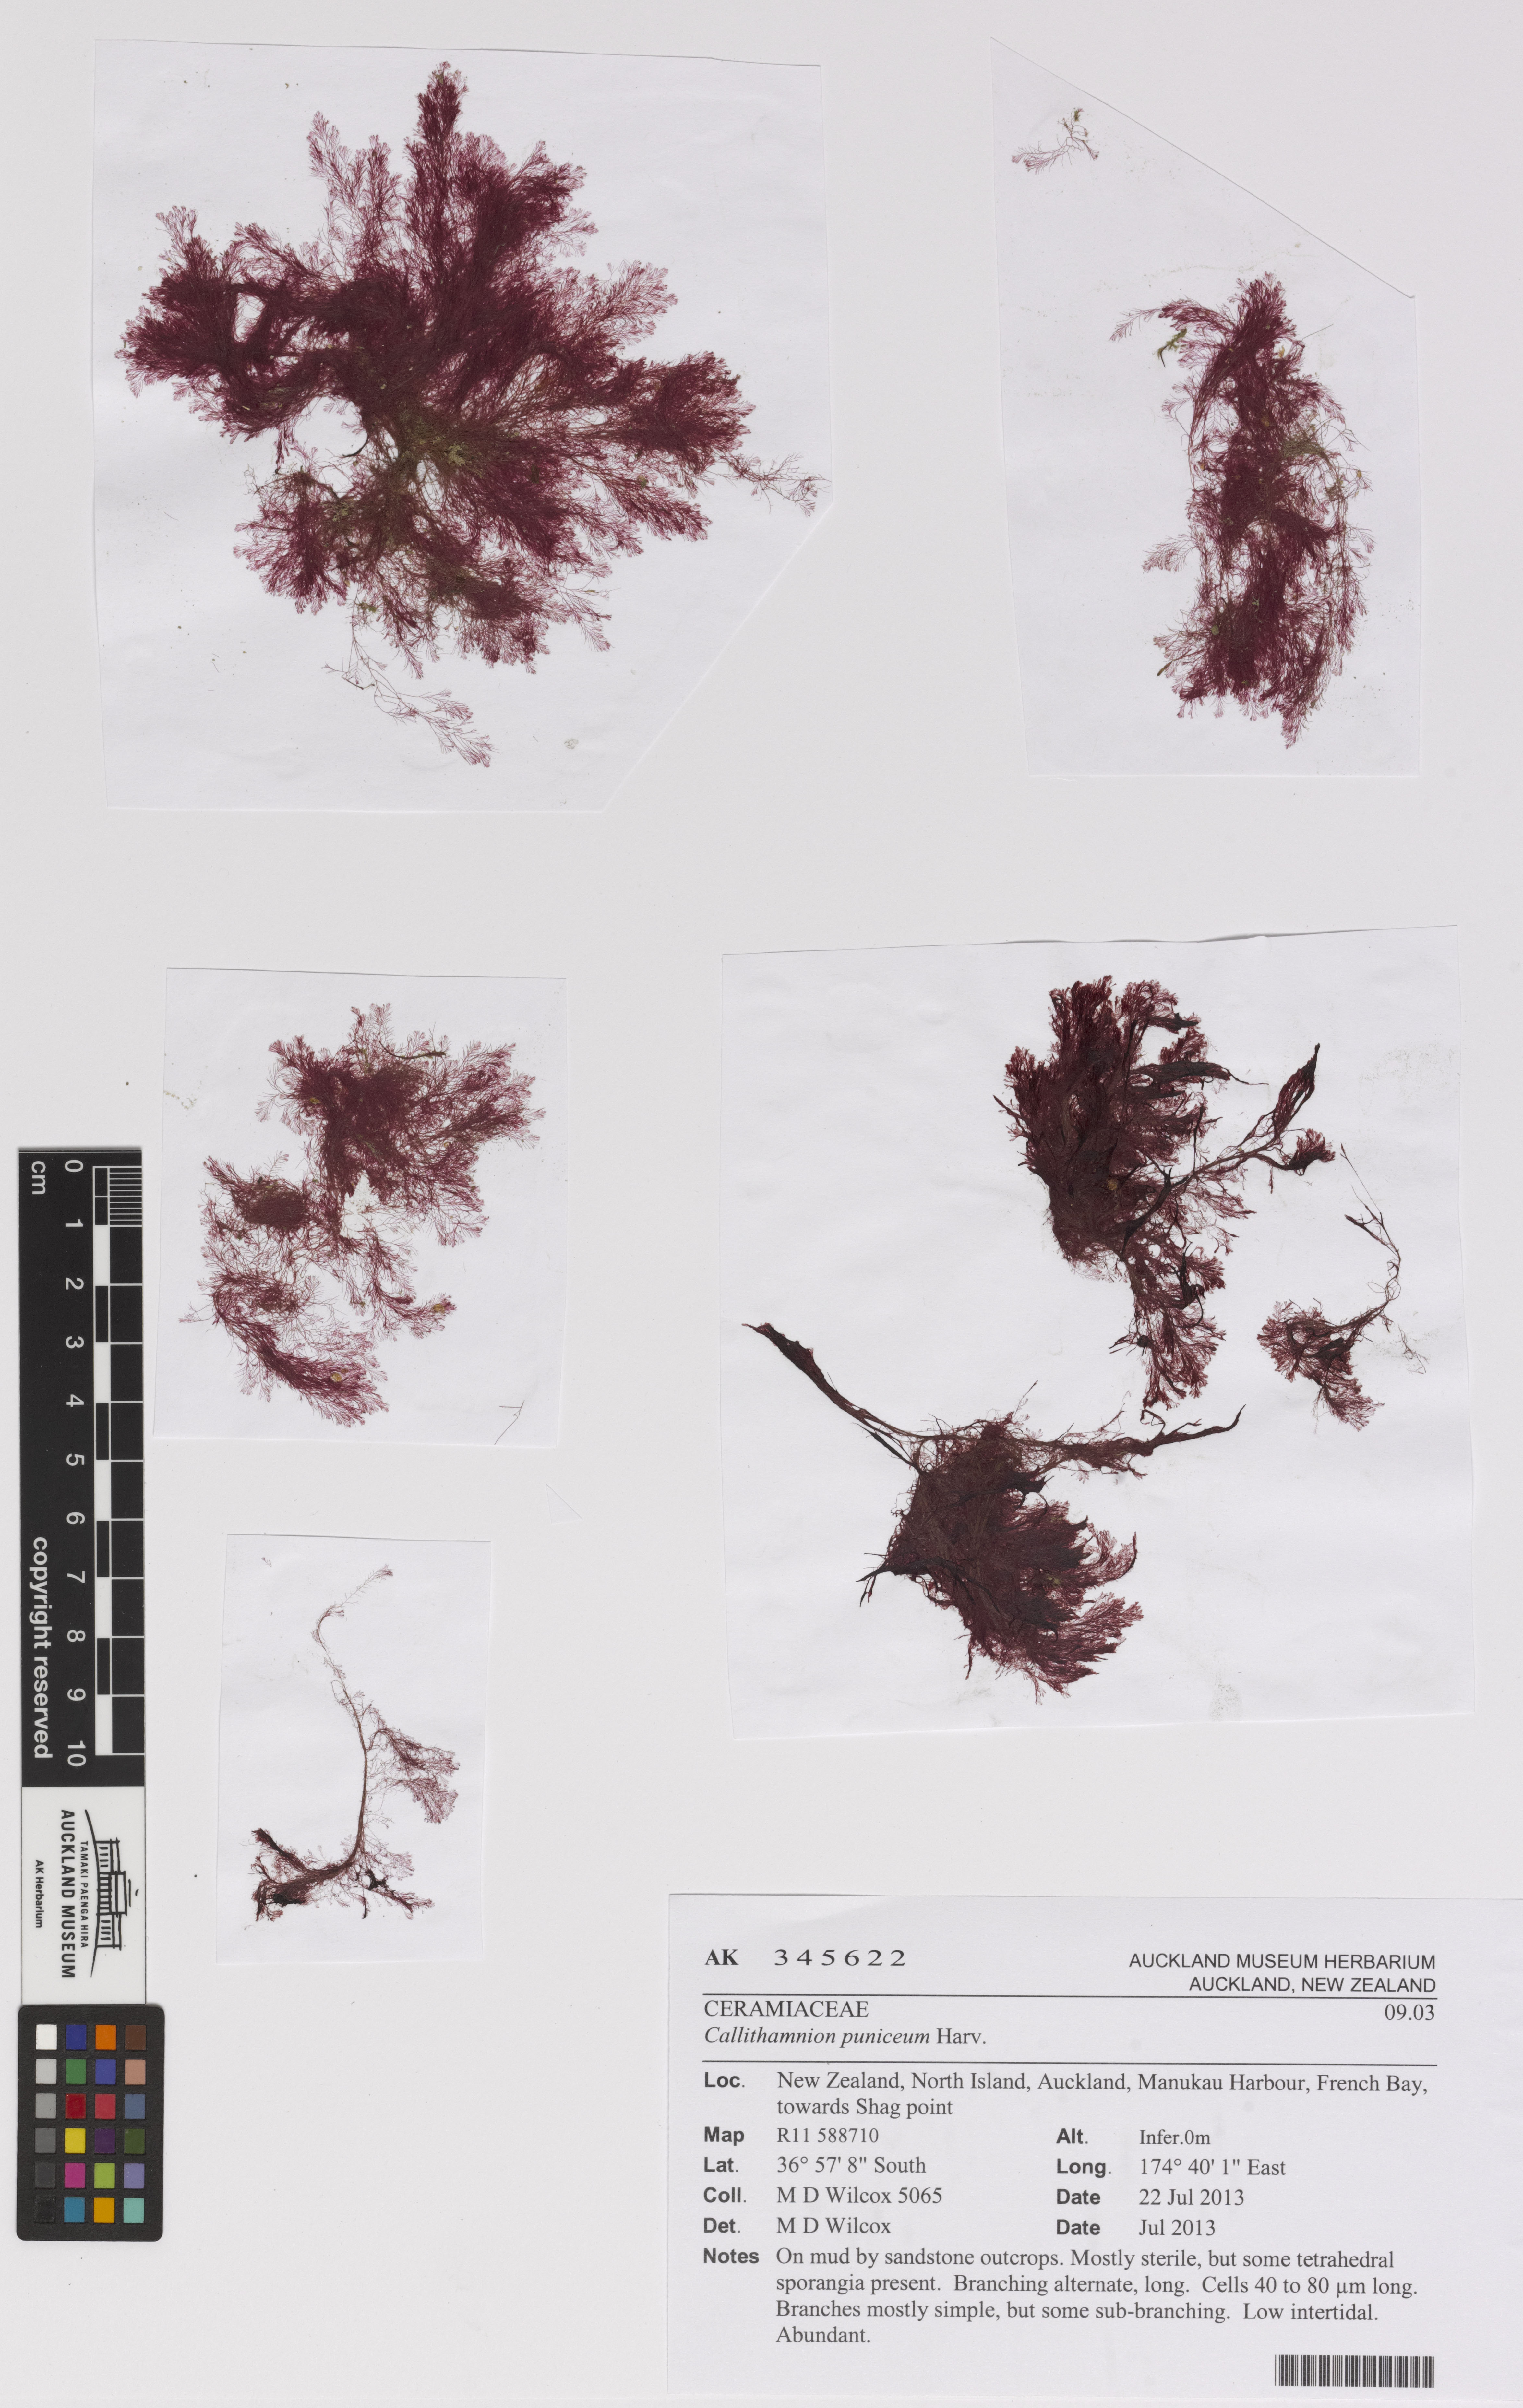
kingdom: Plantae
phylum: Rhodophyta
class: Florideophyceae
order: Ceramiales
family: Wrangeliaceae
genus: Pleonosporium
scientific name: Pleonosporium
